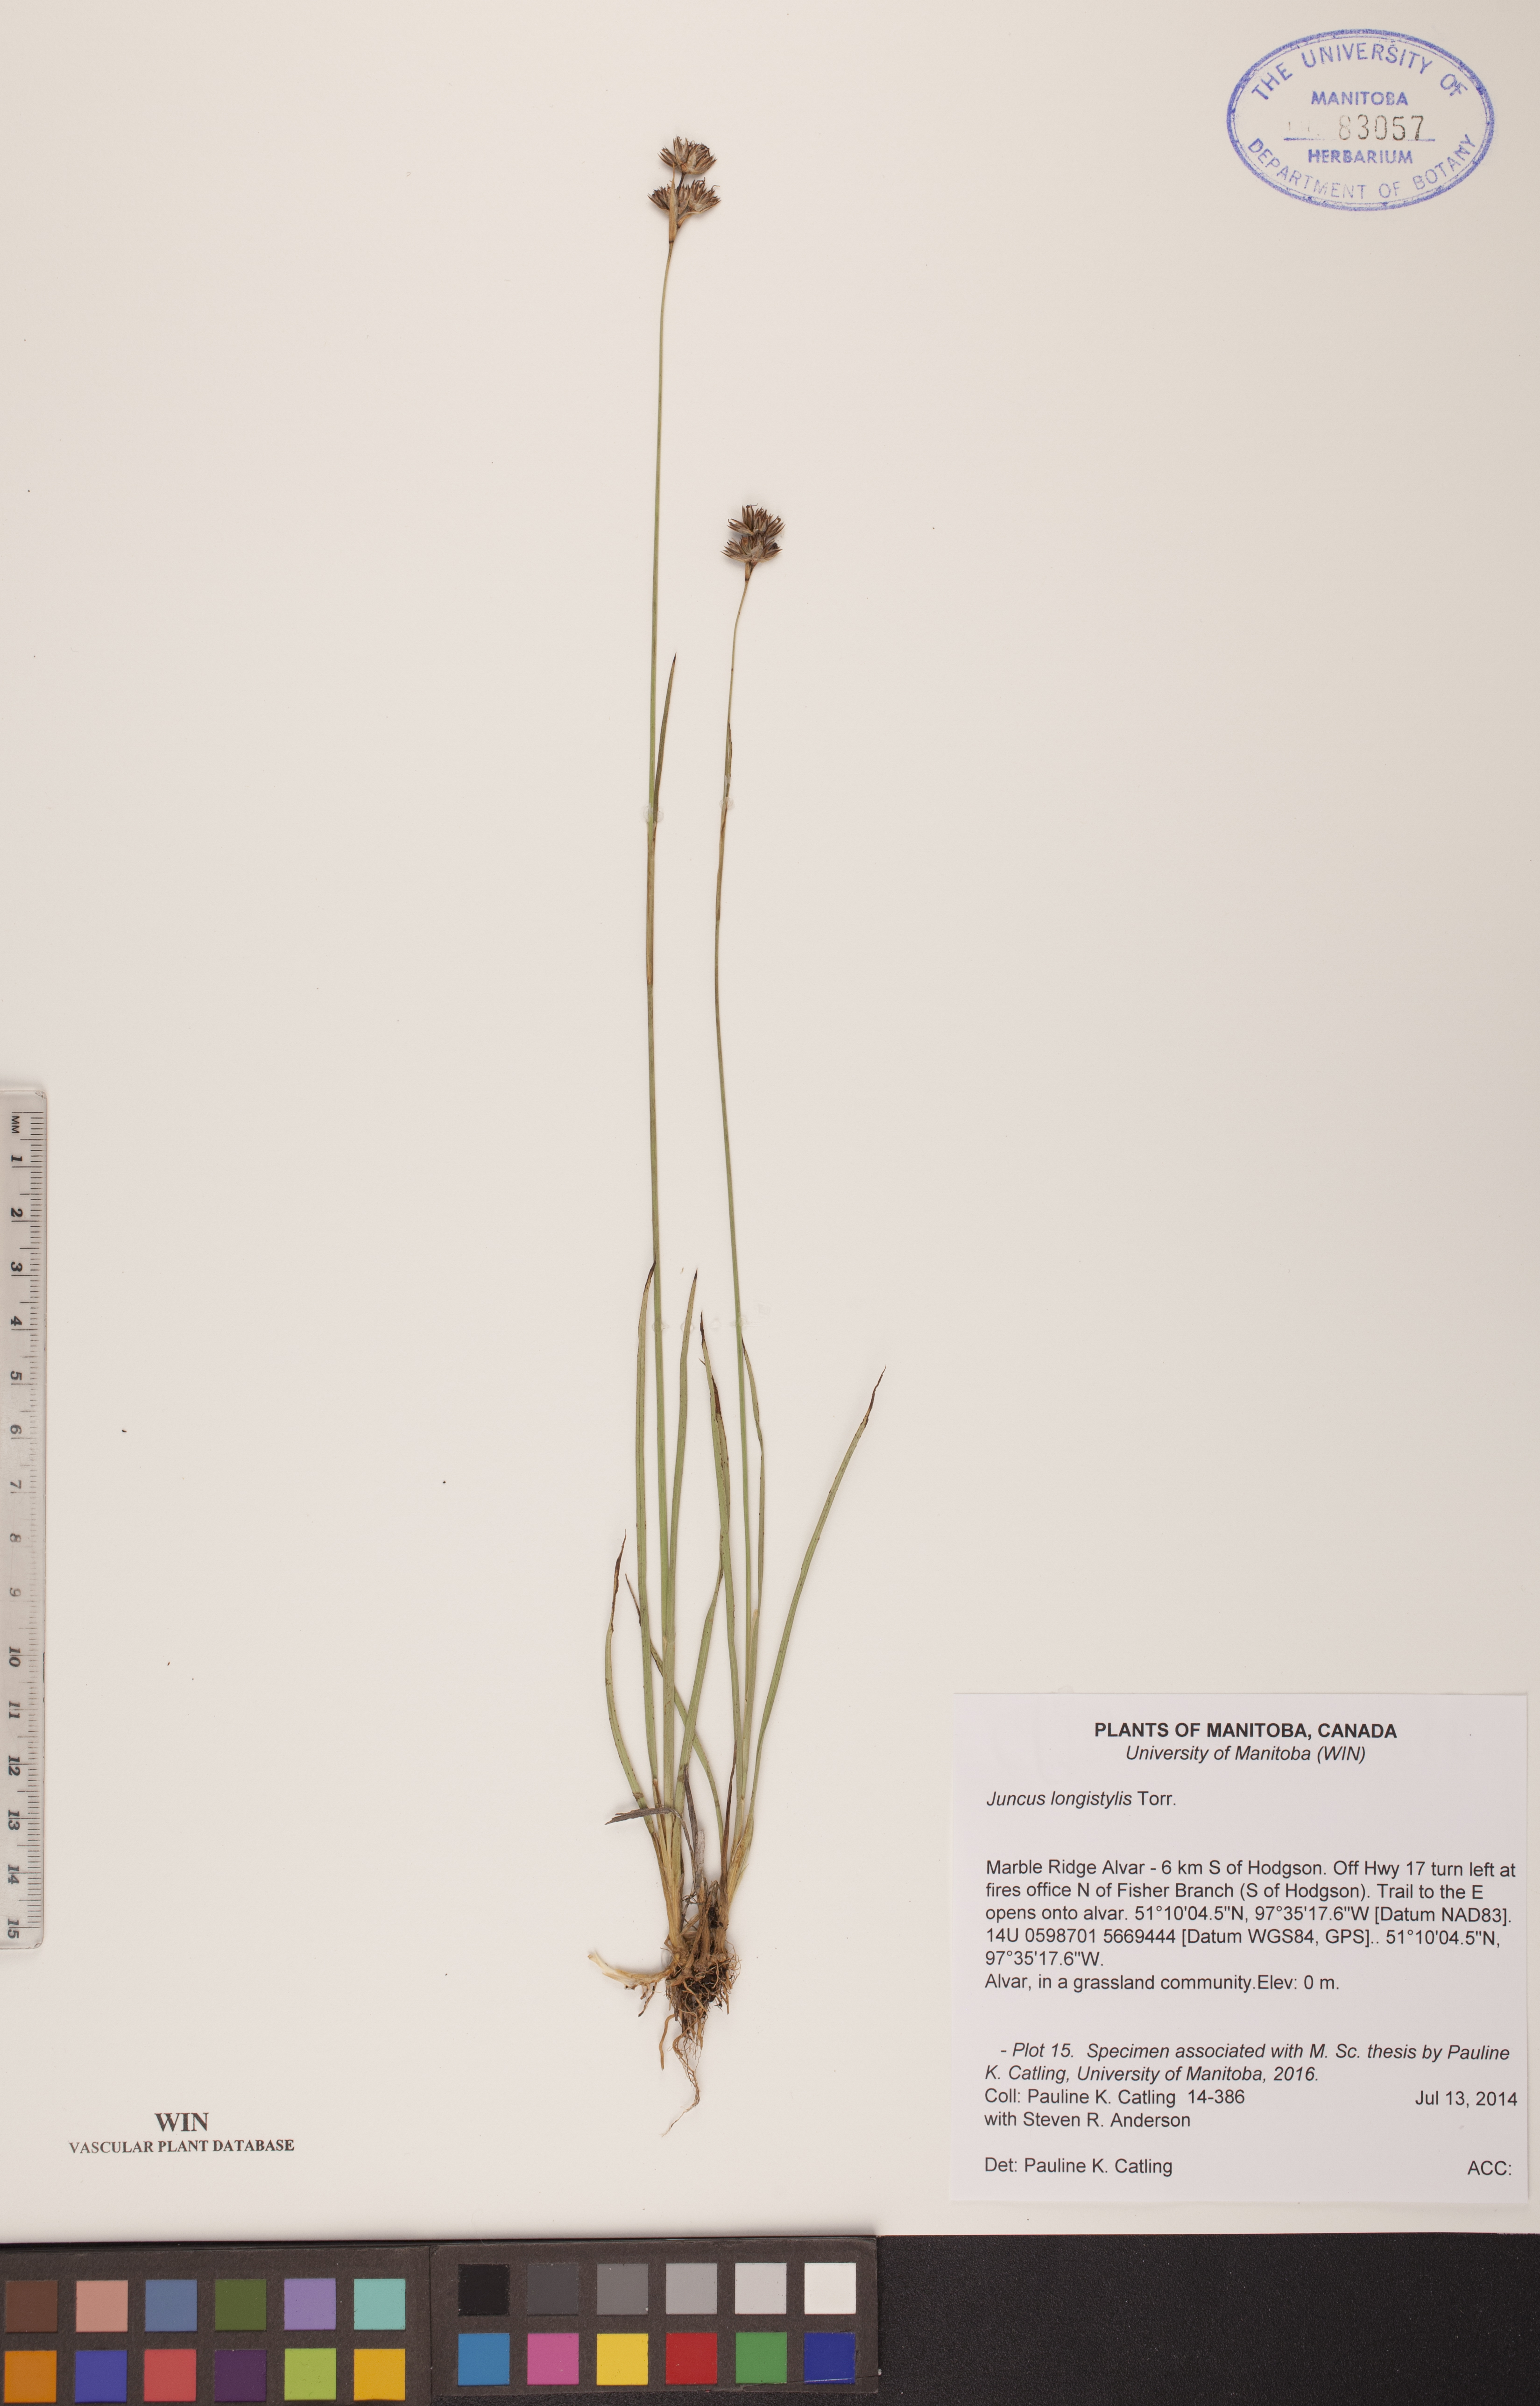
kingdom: Plantae
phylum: Tracheophyta
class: Liliopsida
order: Poales
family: Juncaceae
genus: Juncus
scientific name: Juncus longistylis
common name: Long-style rush
